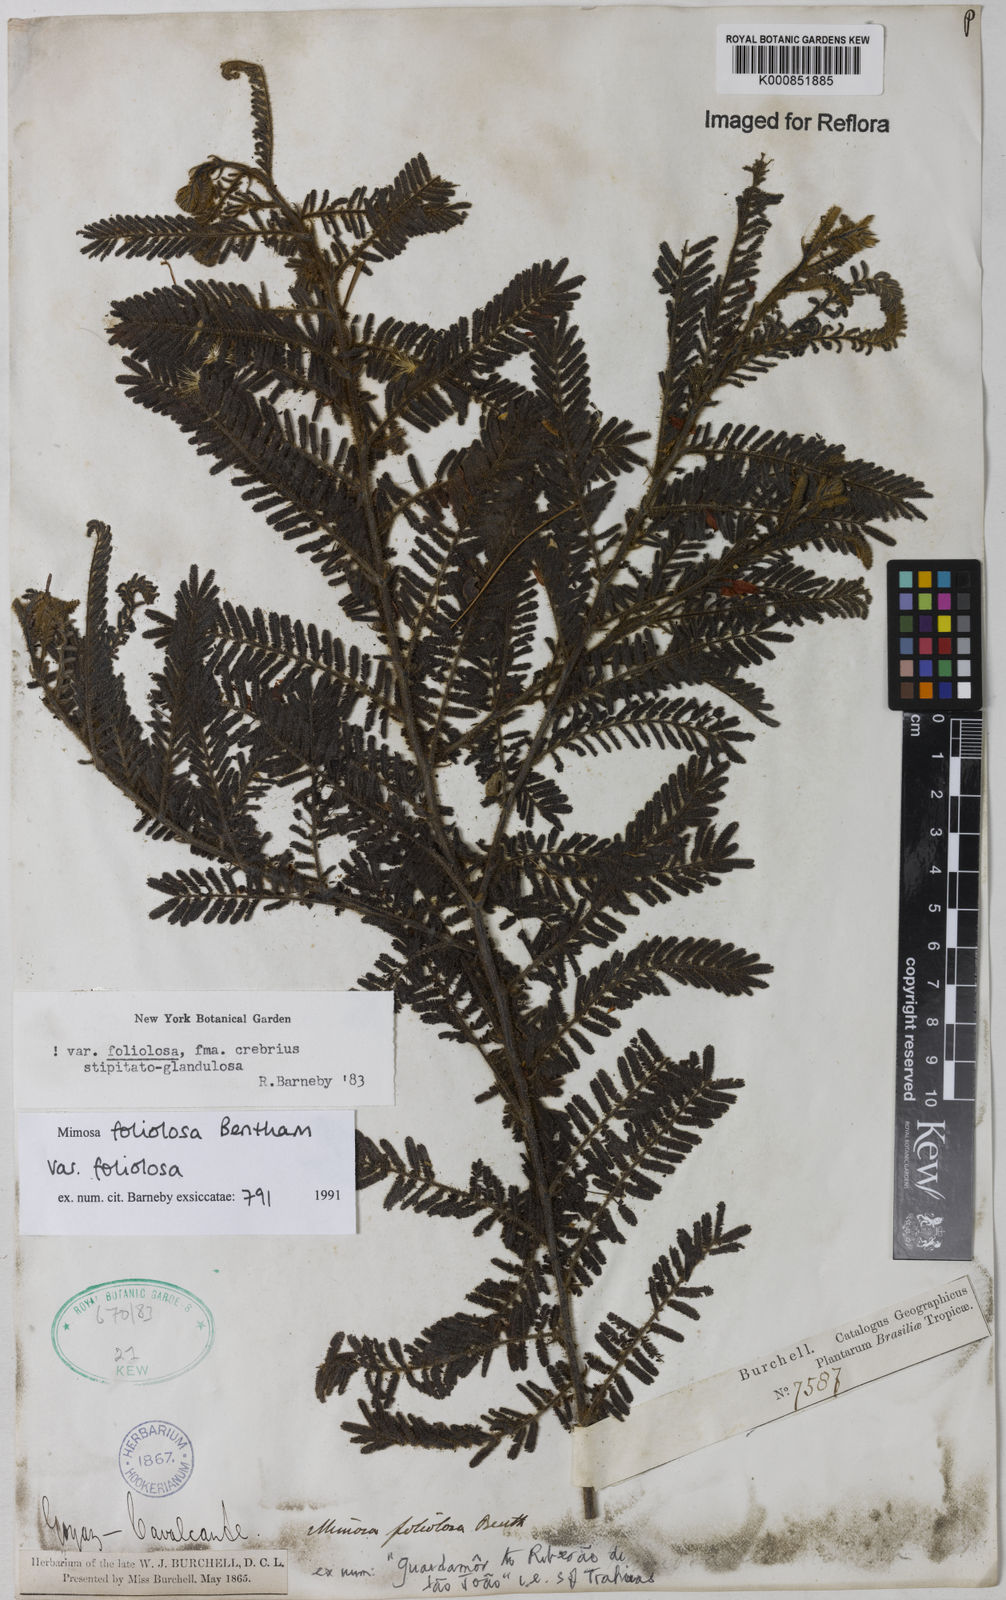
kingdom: Plantae
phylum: Tracheophyta
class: Magnoliopsida
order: Fabales
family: Fabaceae
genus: Mimosa
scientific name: Mimosa pseudofoliolosa
